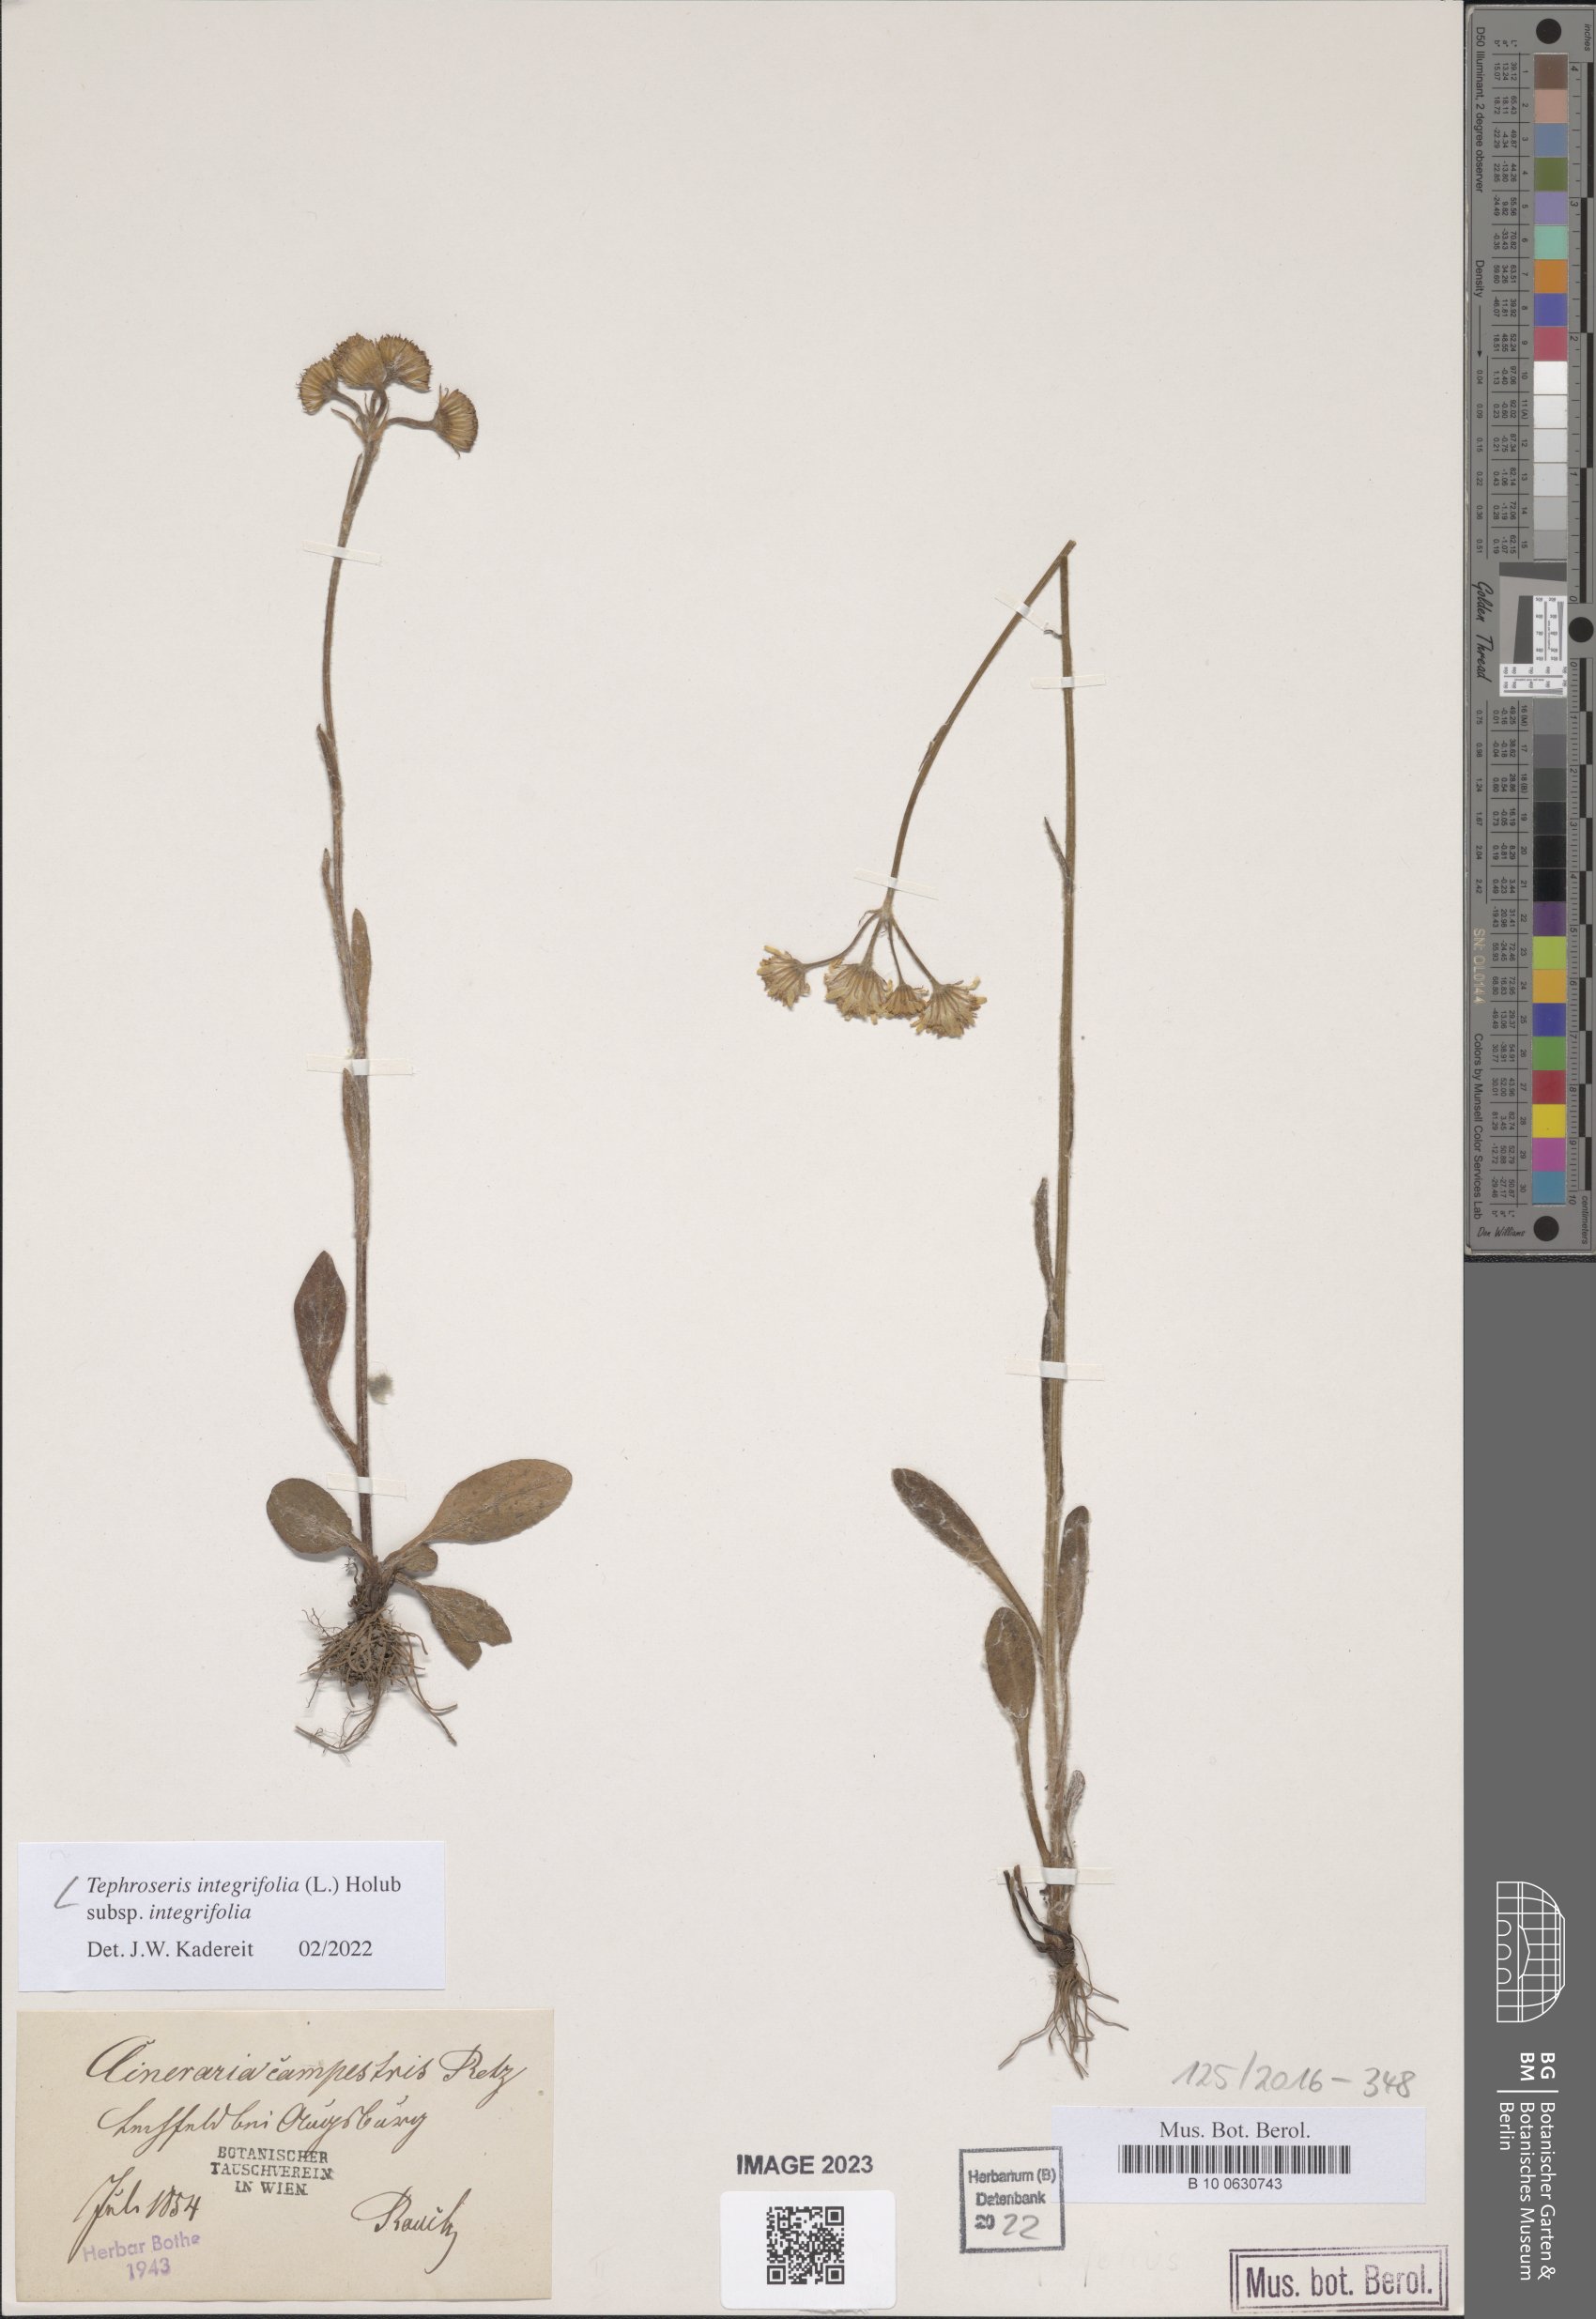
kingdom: Plantae
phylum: Tracheophyta
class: Magnoliopsida
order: Asterales
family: Asteraceae
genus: Tephroseris
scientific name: Tephroseris integrifolia
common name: Field fleawort
